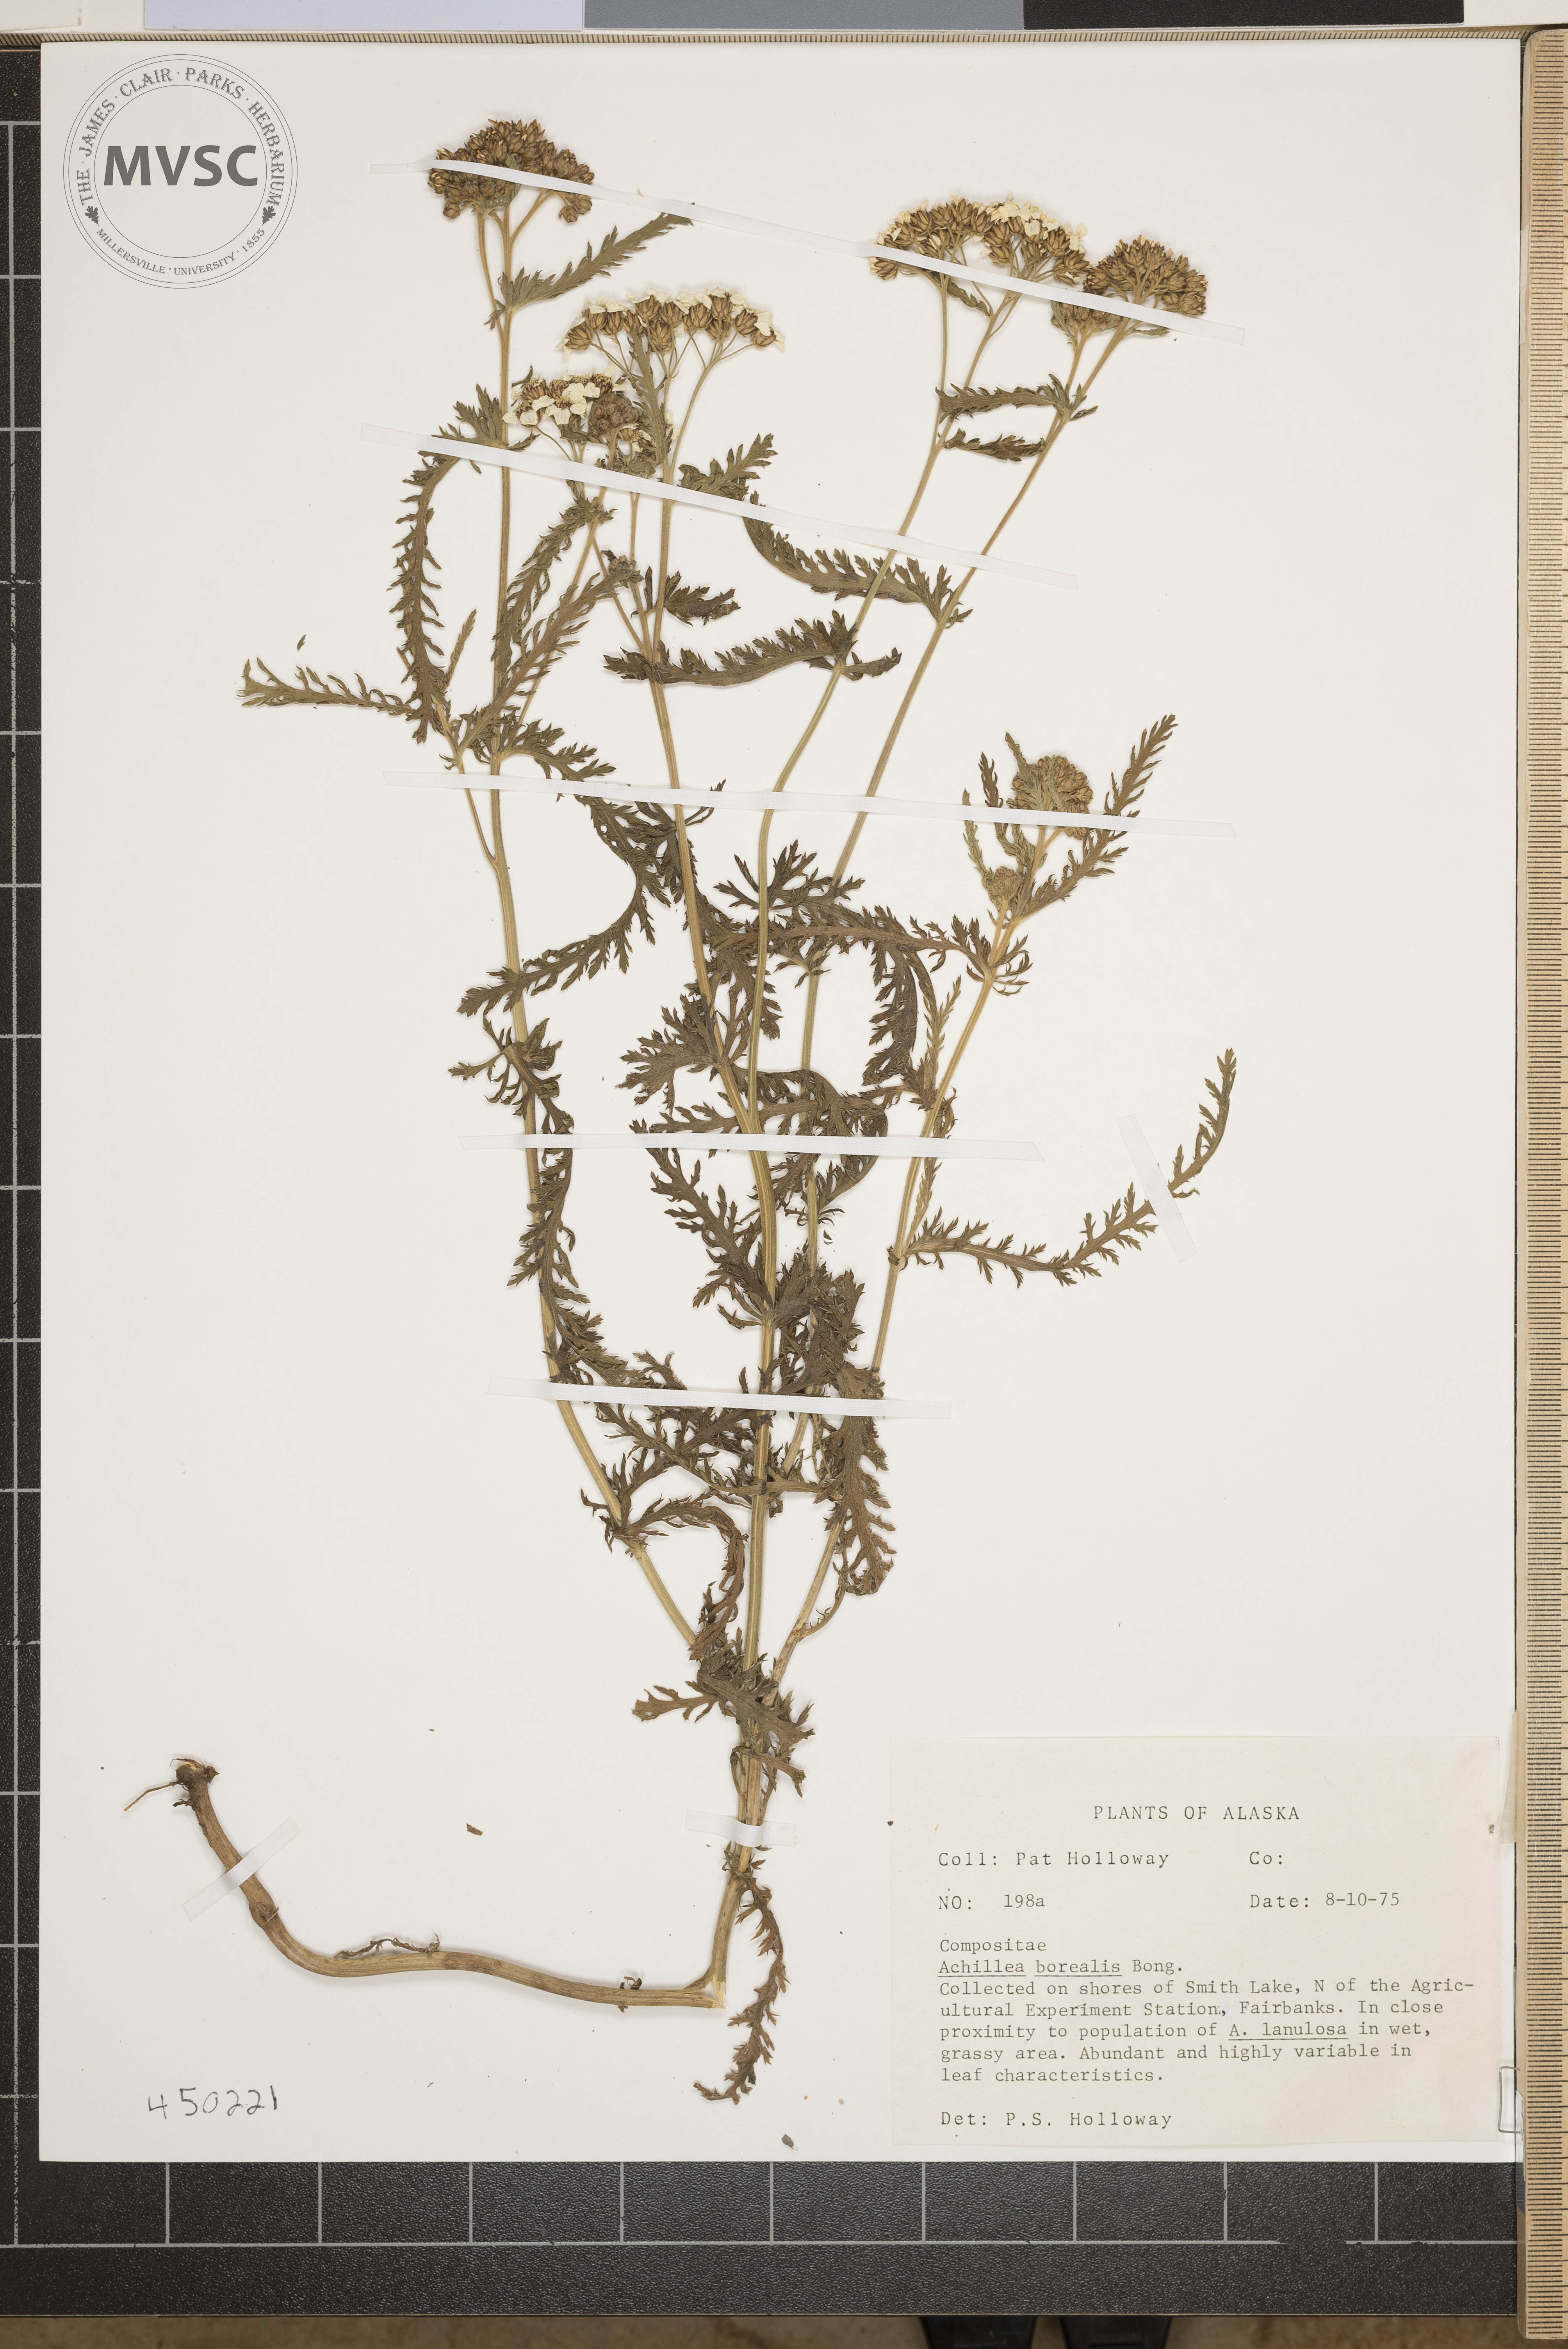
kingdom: Plantae
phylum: Tracheophyta
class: Magnoliopsida
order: Asterales
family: Asteraceae
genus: Achillea
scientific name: Achillea millefolium
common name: Yarrow
